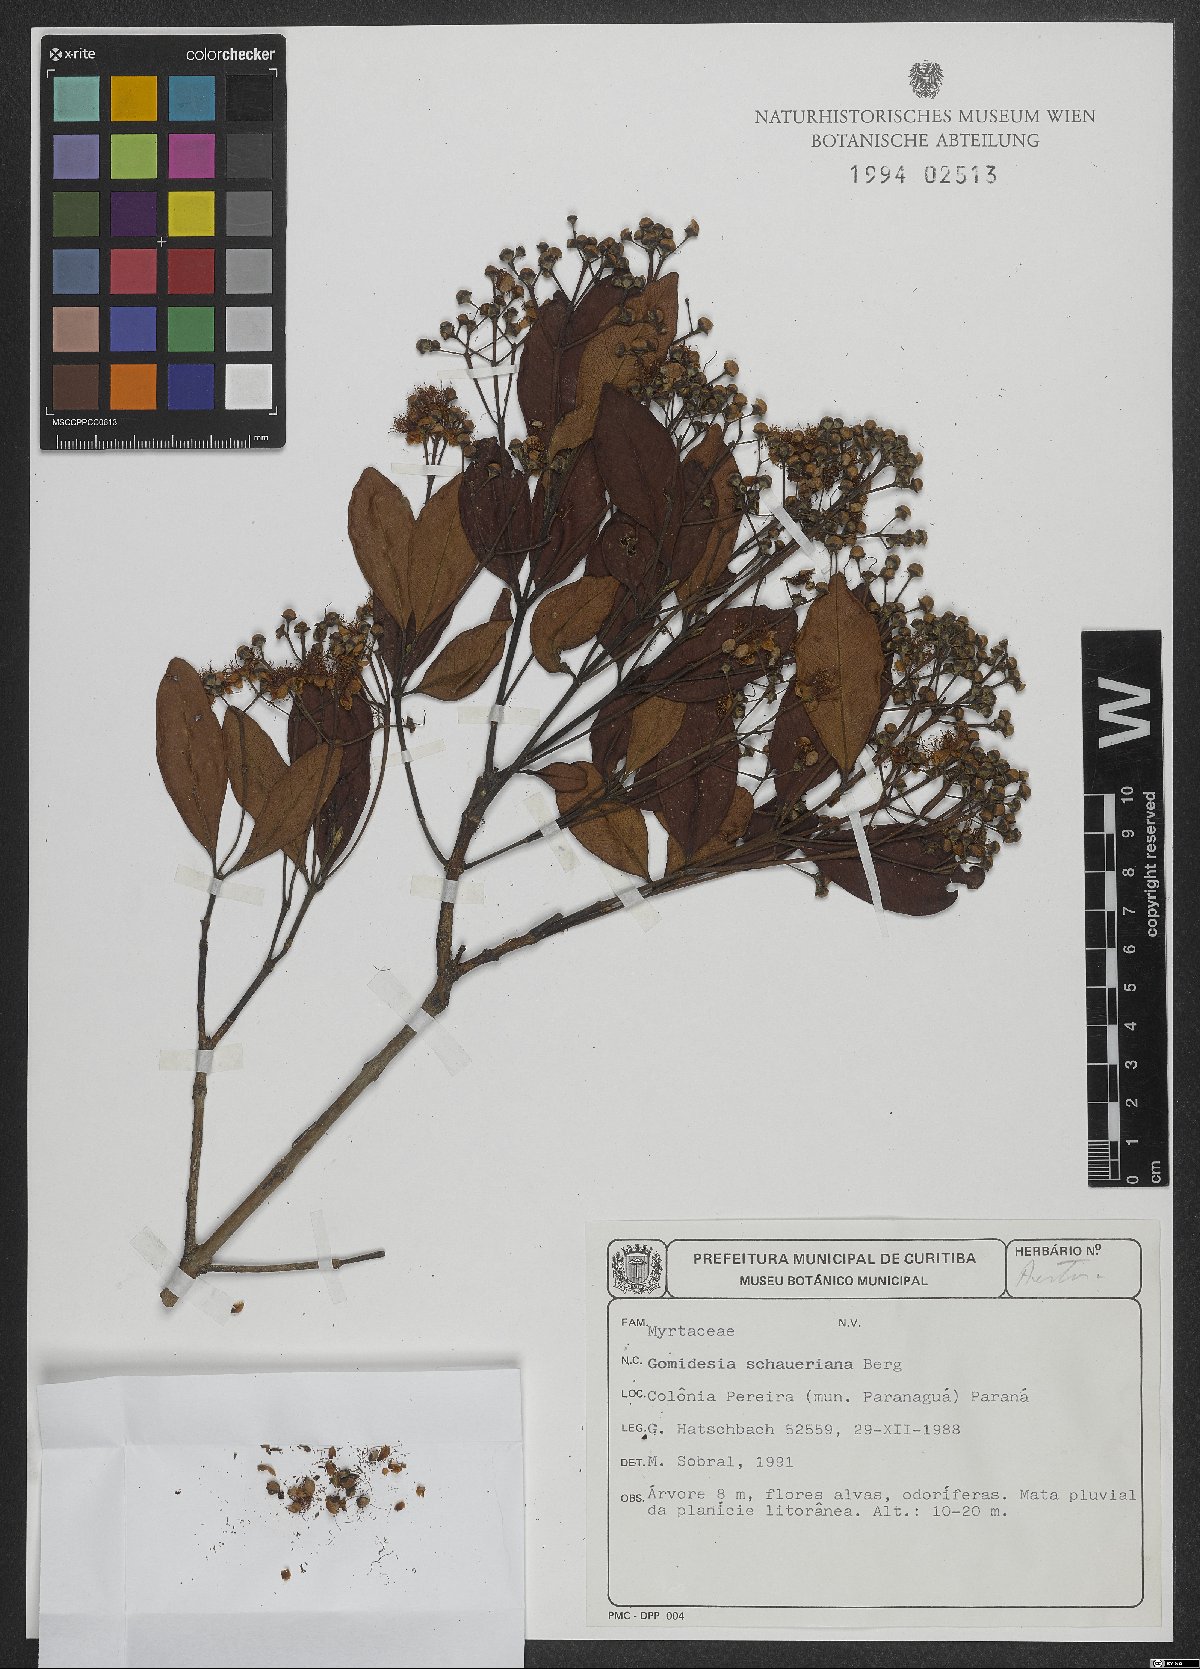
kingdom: Plantae
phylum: Tracheophyta
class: Magnoliopsida
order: Myrtales
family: Myrtaceae
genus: Myrcia
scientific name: Myrcia freyreissiana
